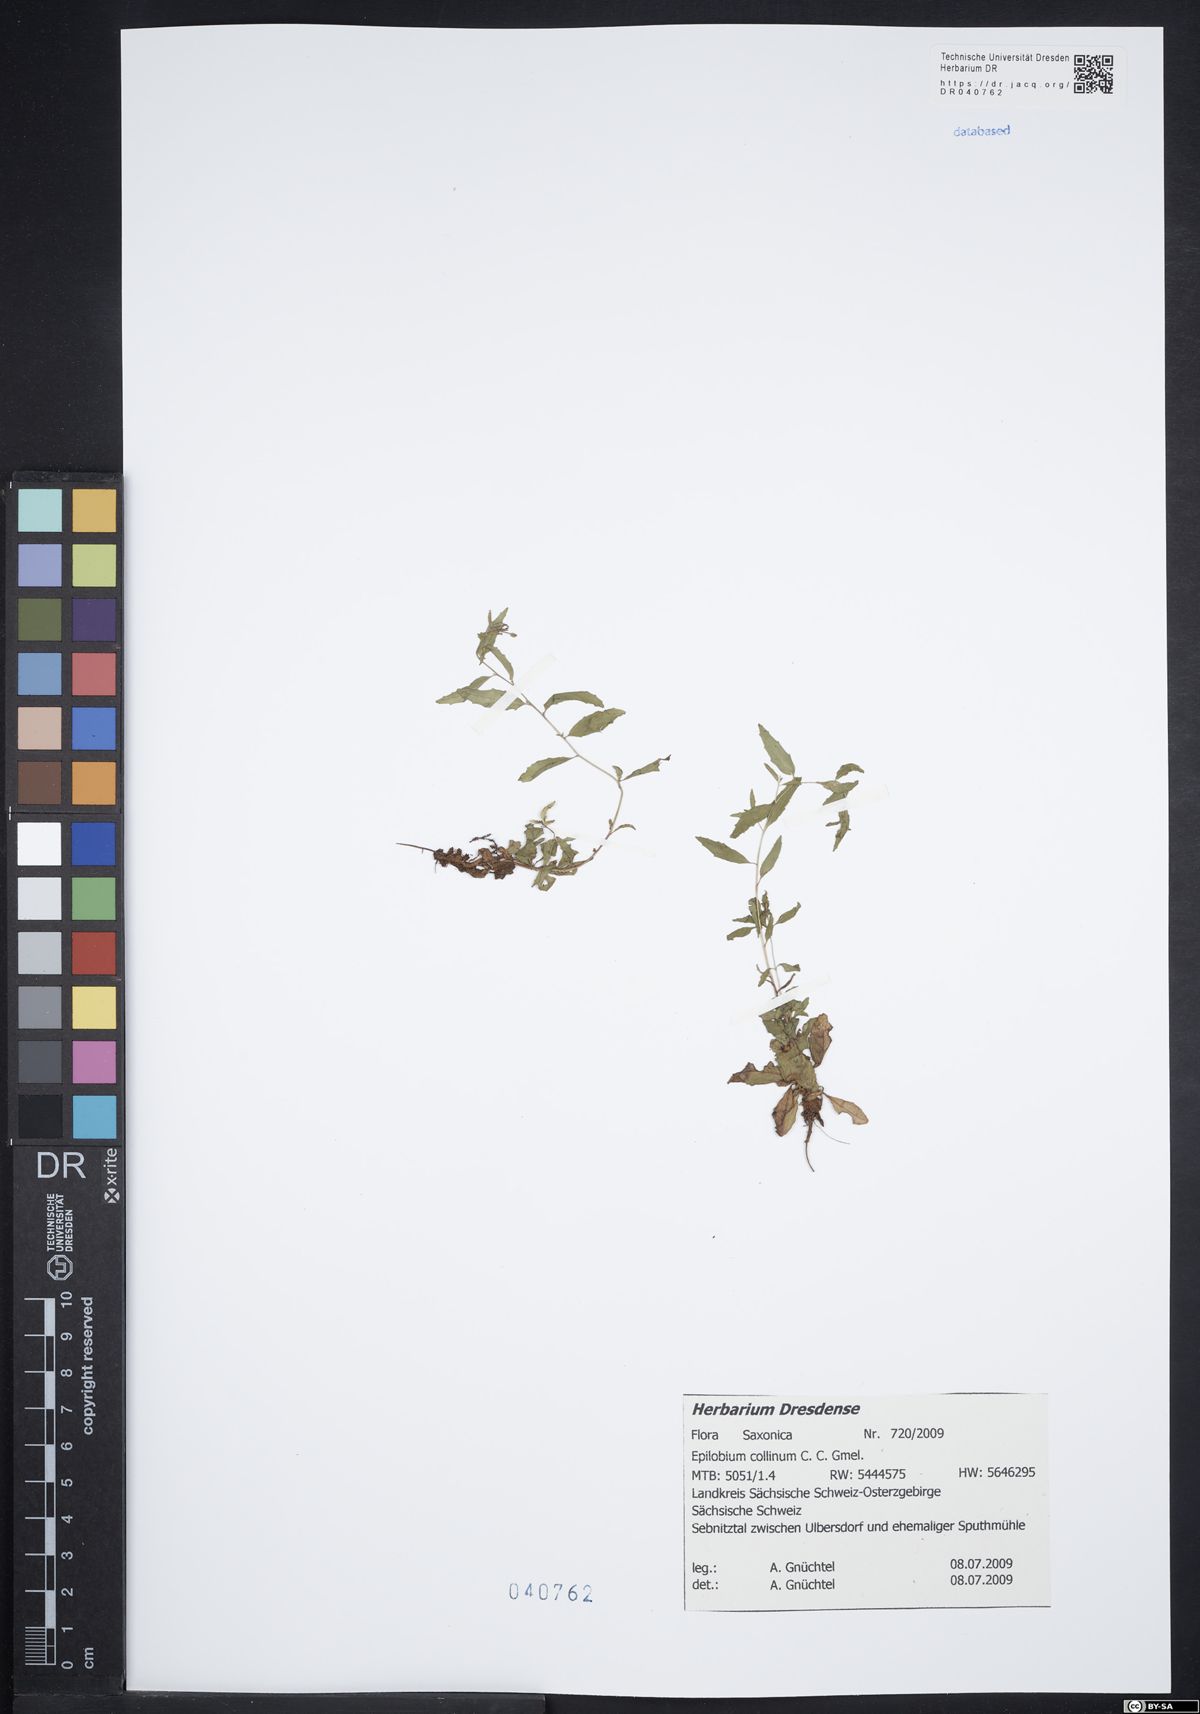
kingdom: Plantae
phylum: Tracheophyta
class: Magnoliopsida
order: Myrtales
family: Onagraceae
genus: Epilobium
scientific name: Epilobium collinum
